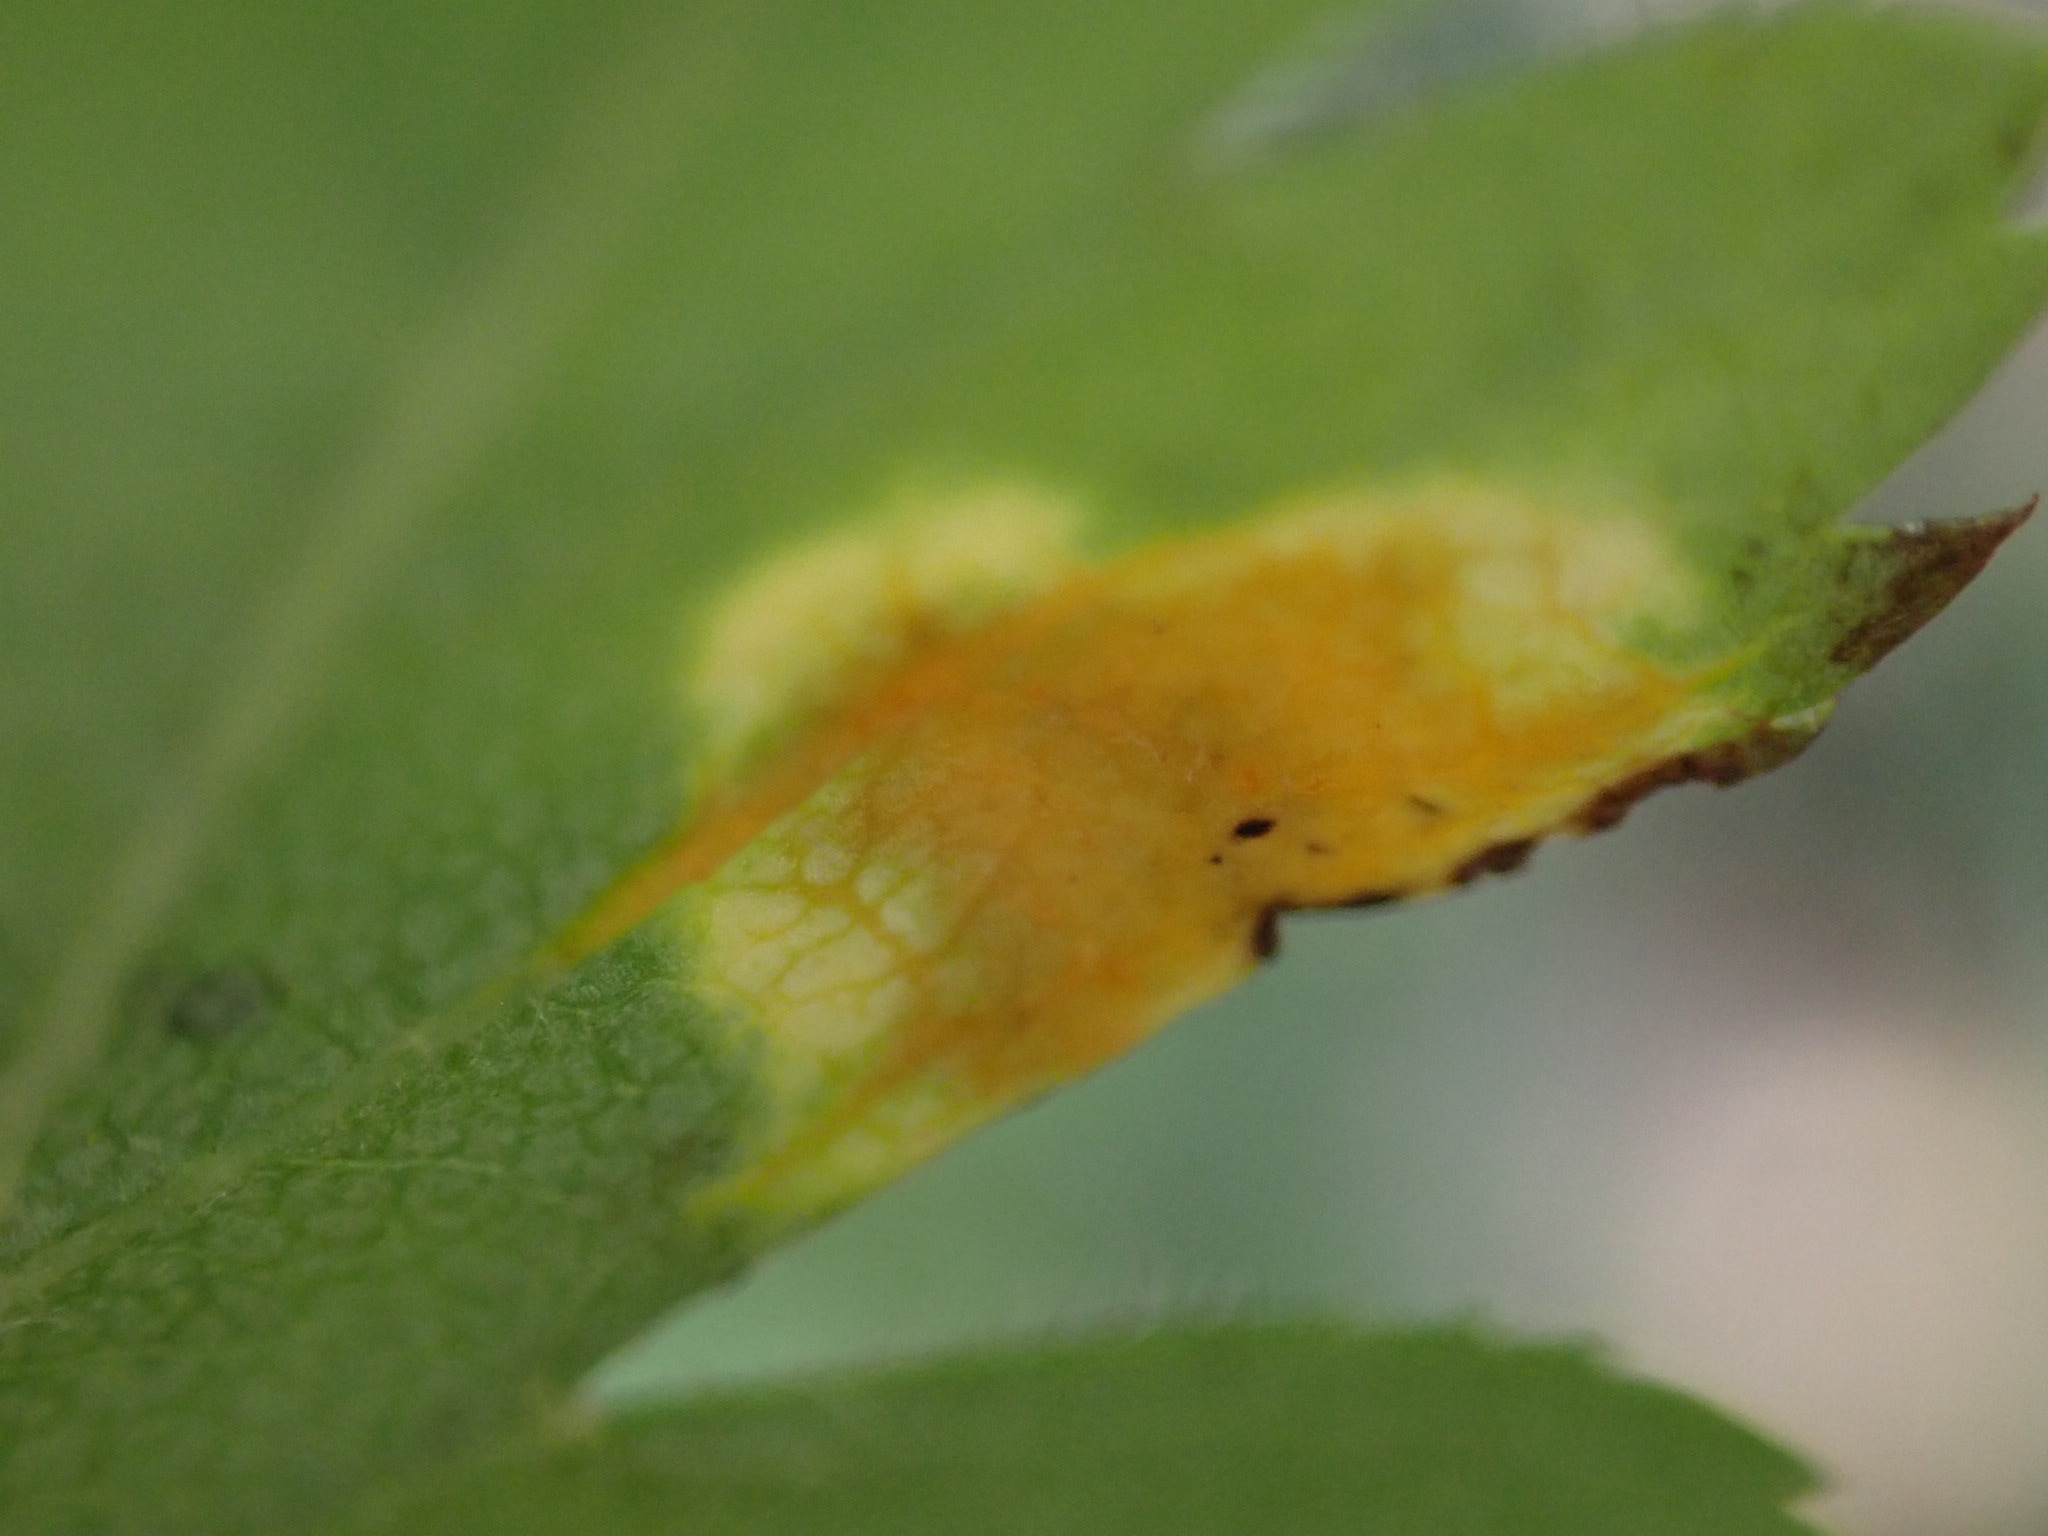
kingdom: Fungi
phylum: Basidiomycota
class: Pucciniomycetes
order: Pucciniales
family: Gymnosporangiaceae
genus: Gymnosporangium
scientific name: Gymnosporangium
